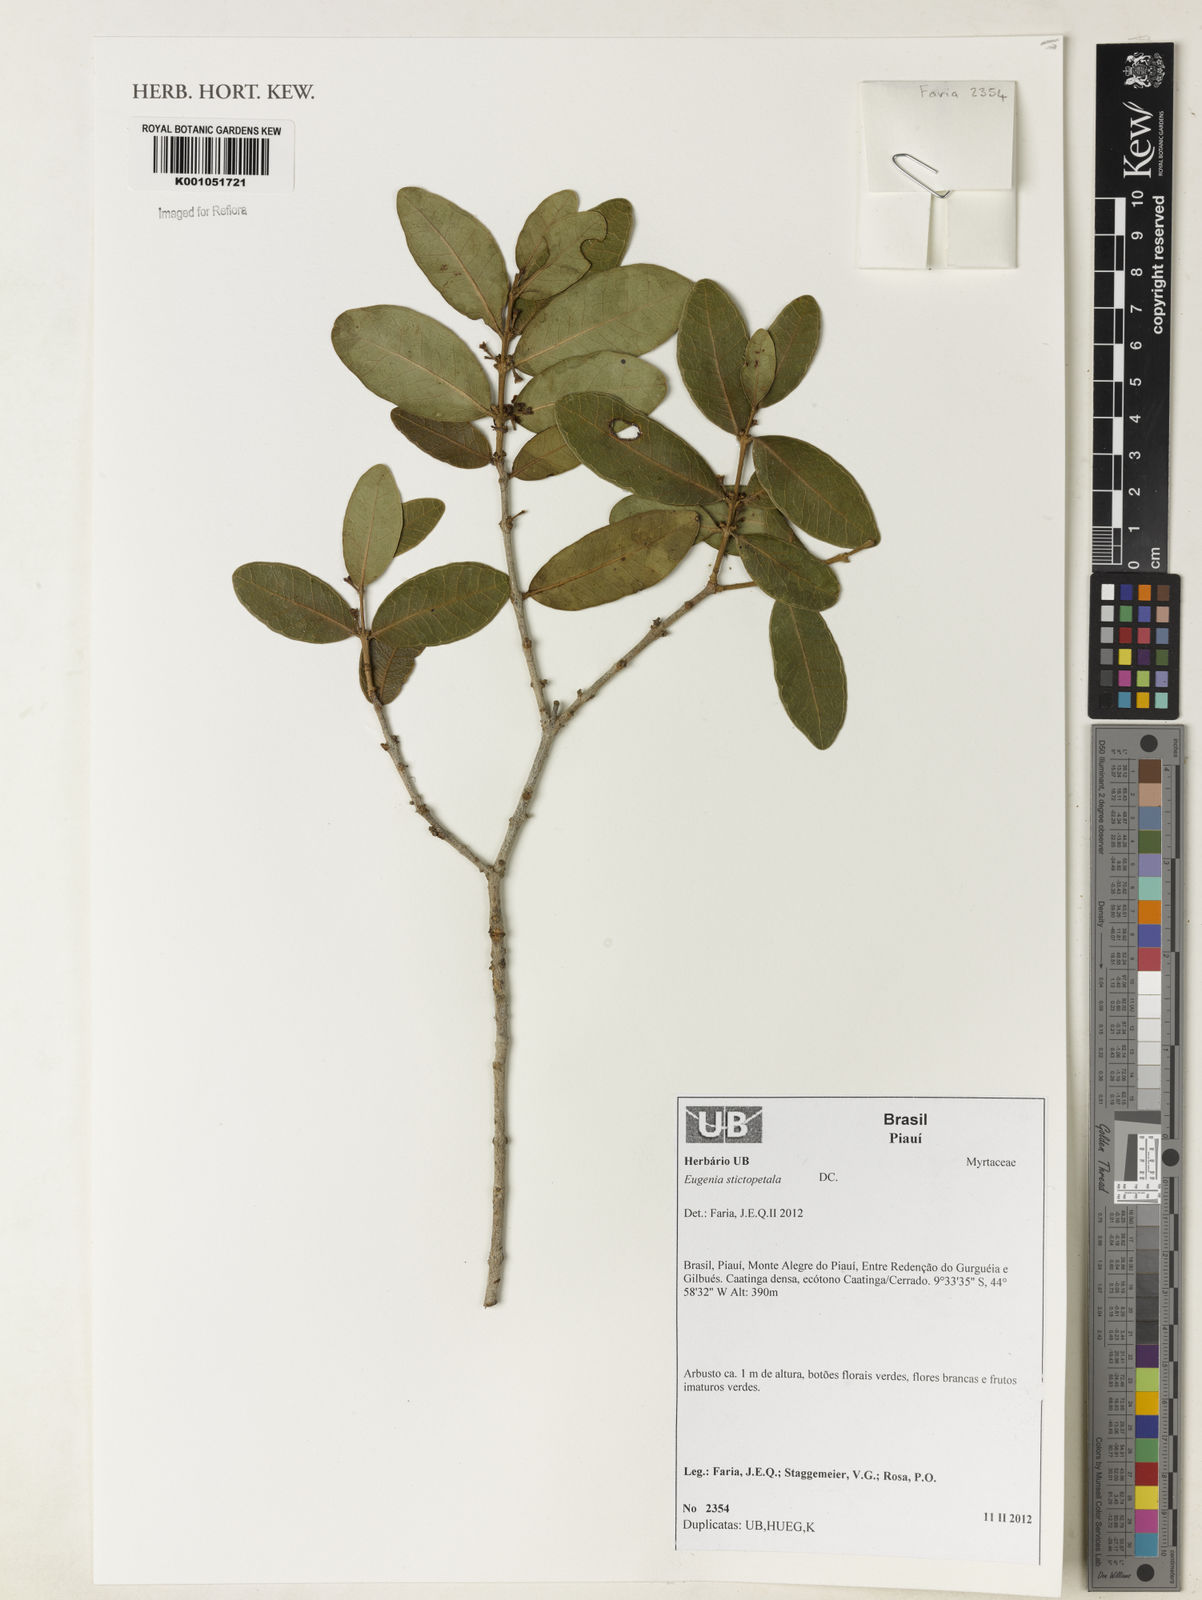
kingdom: Plantae
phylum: Tracheophyta
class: Magnoliopsida
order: Myrtales
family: Myrtaceae
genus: Eugenia
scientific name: Eugenia stictopetala
